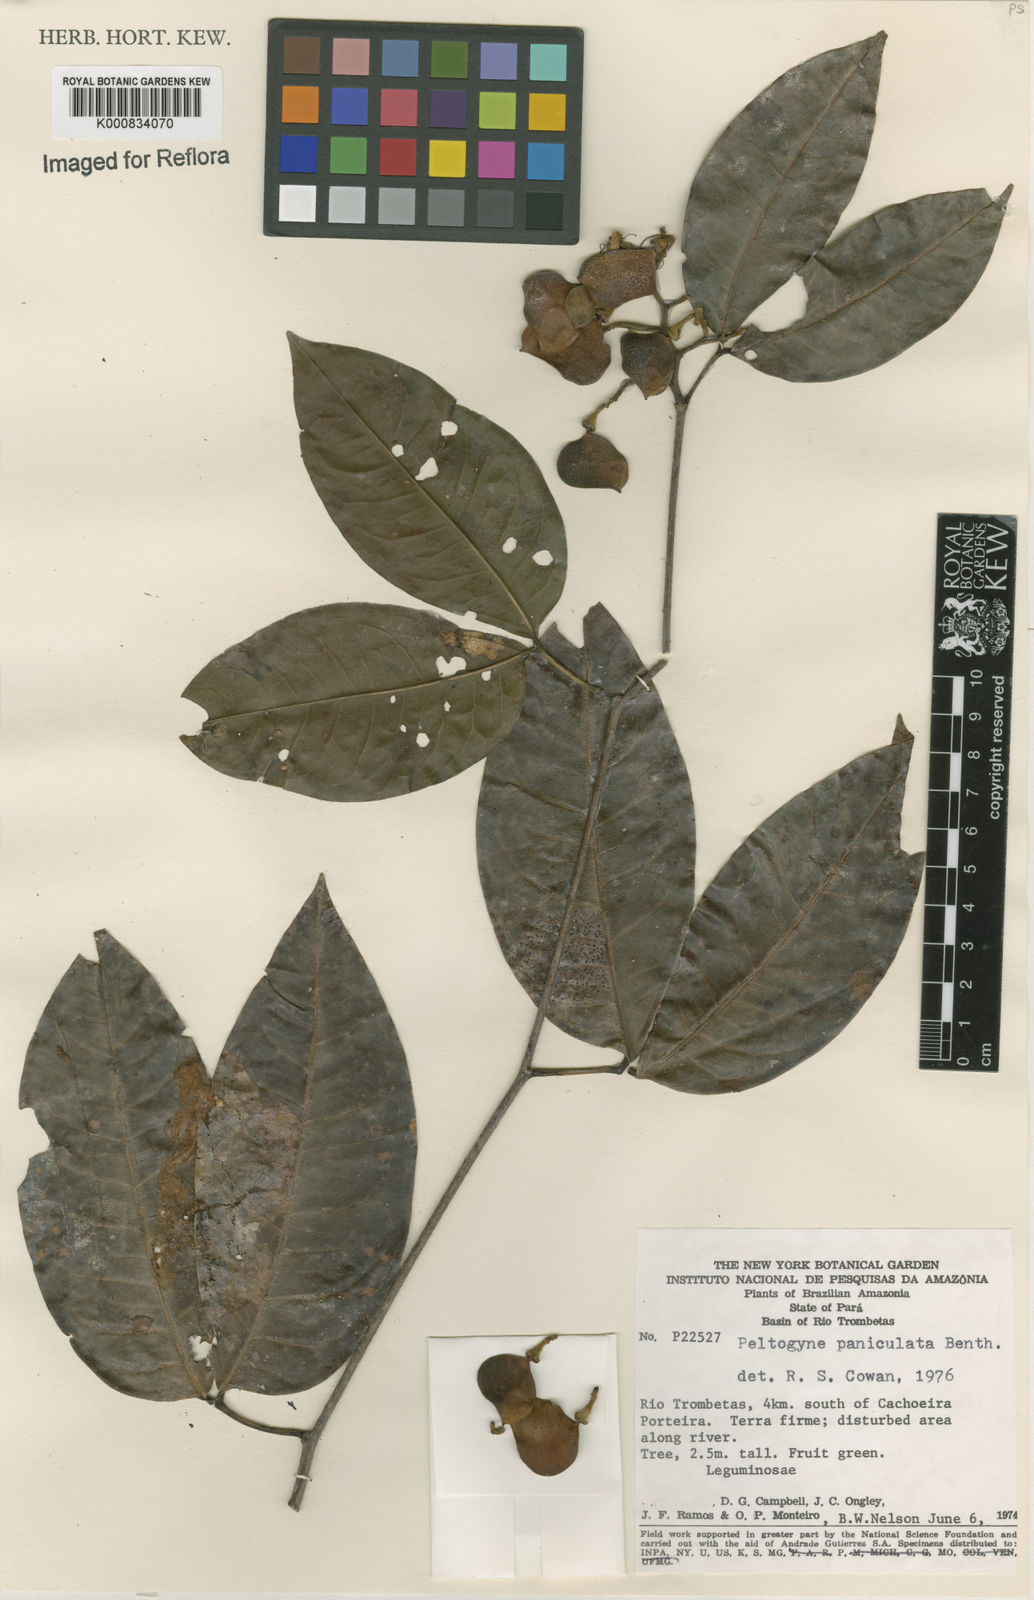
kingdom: Plantae
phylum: Tracheophyta
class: Magnoliopsida
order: Fabales
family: Fabaceae
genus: Peltogyne
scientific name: Peltogyne paniculata
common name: Purpleheart
